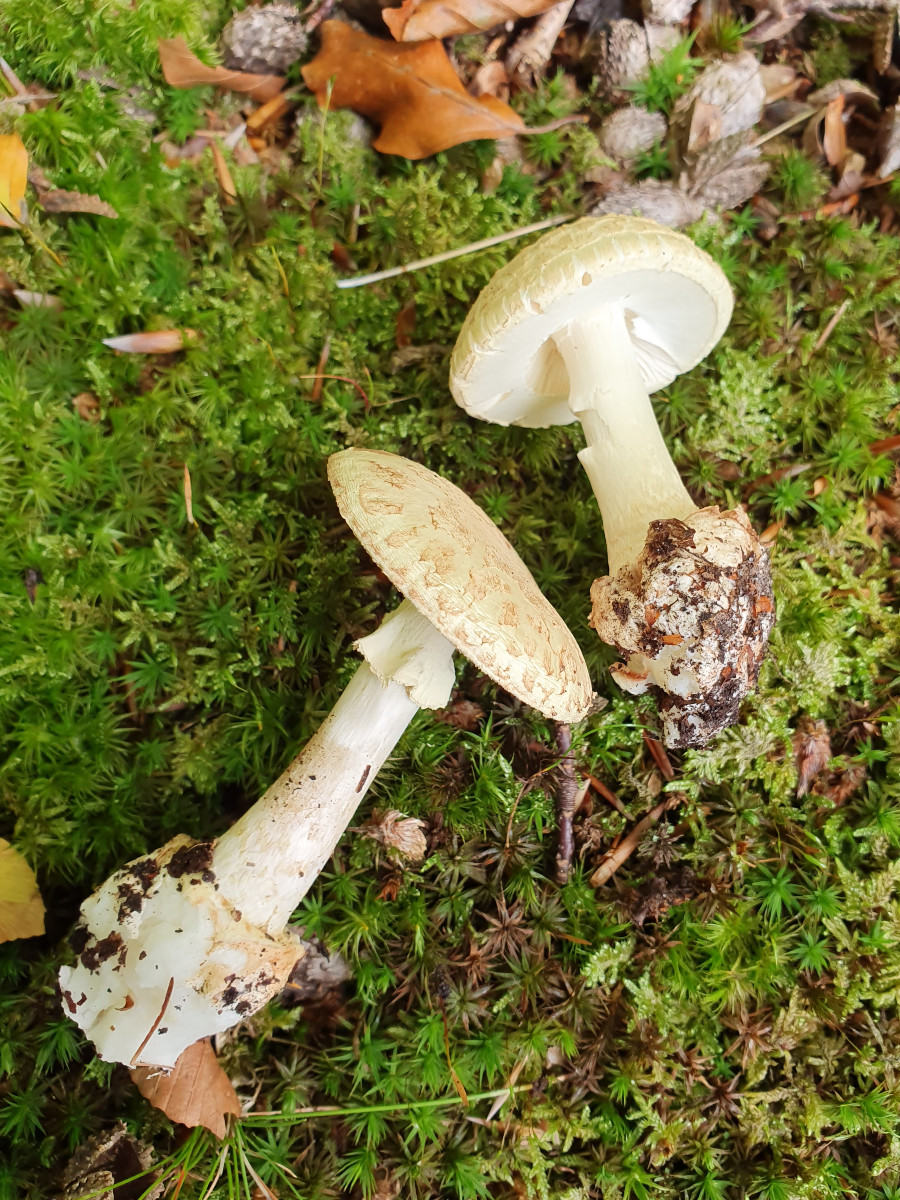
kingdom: Fungi
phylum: Basidiomycota
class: Agaricomycetes
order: Agaricales
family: Amanitaceae
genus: Amanita
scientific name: Amanita citrina
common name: kugleknoldet fluesvamp
